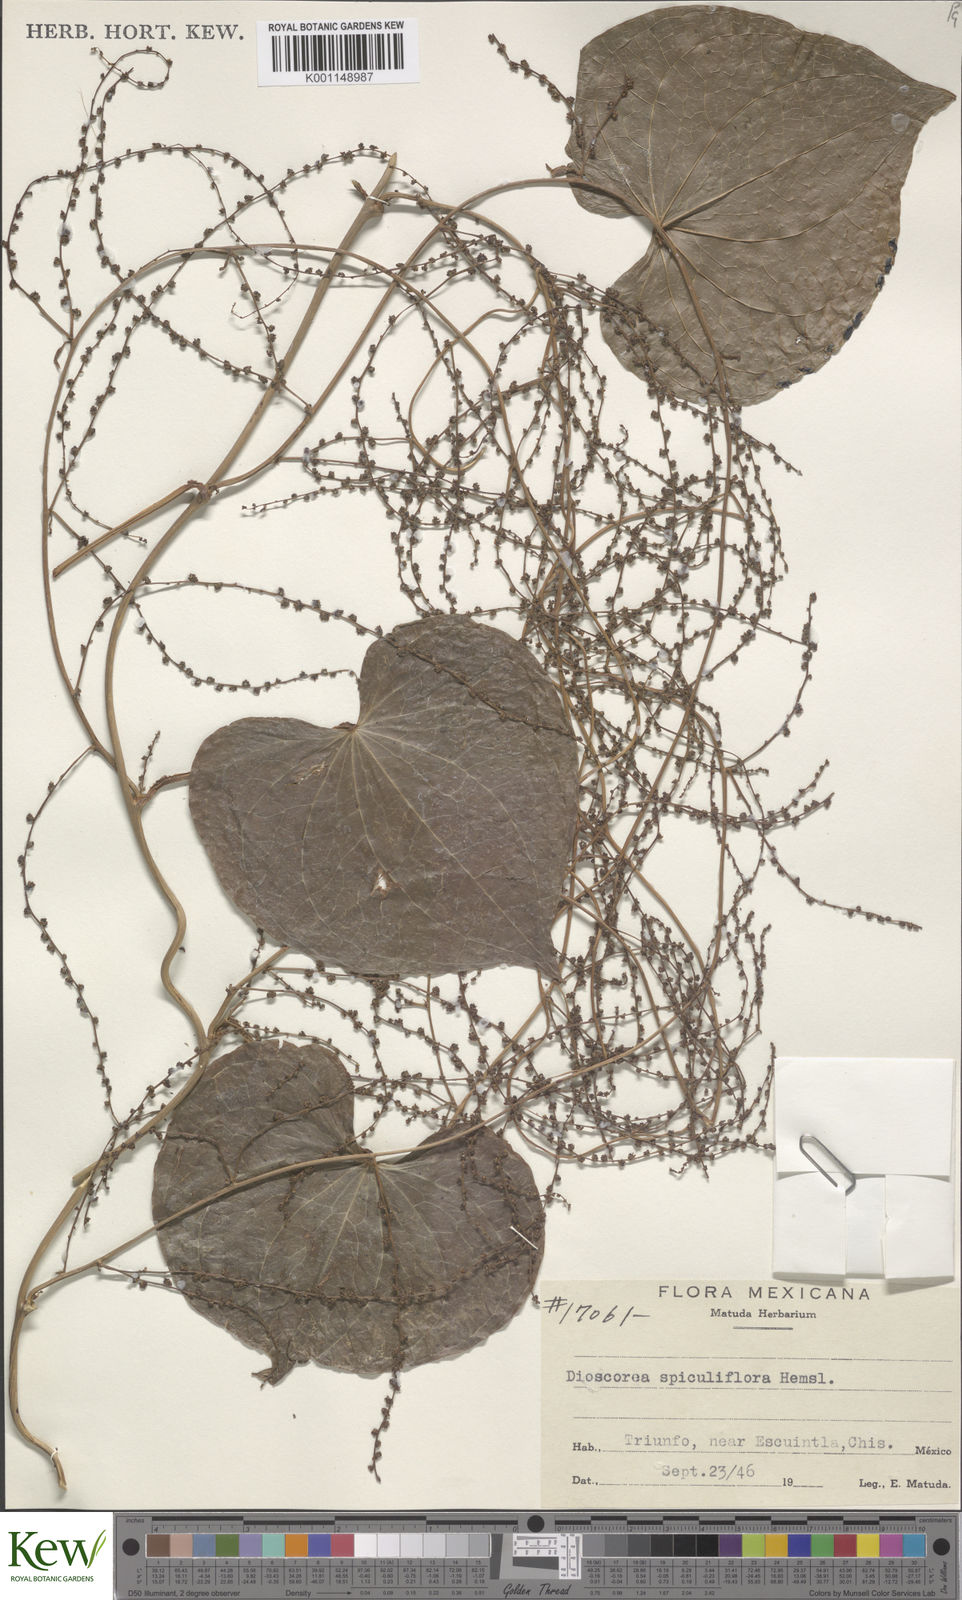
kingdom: Plantae
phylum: Tracheophyta
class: Liliopsida
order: Dioscoreales
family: Dioscoreaceae
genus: Dioscorea
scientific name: Dioscorea spiculiflora
